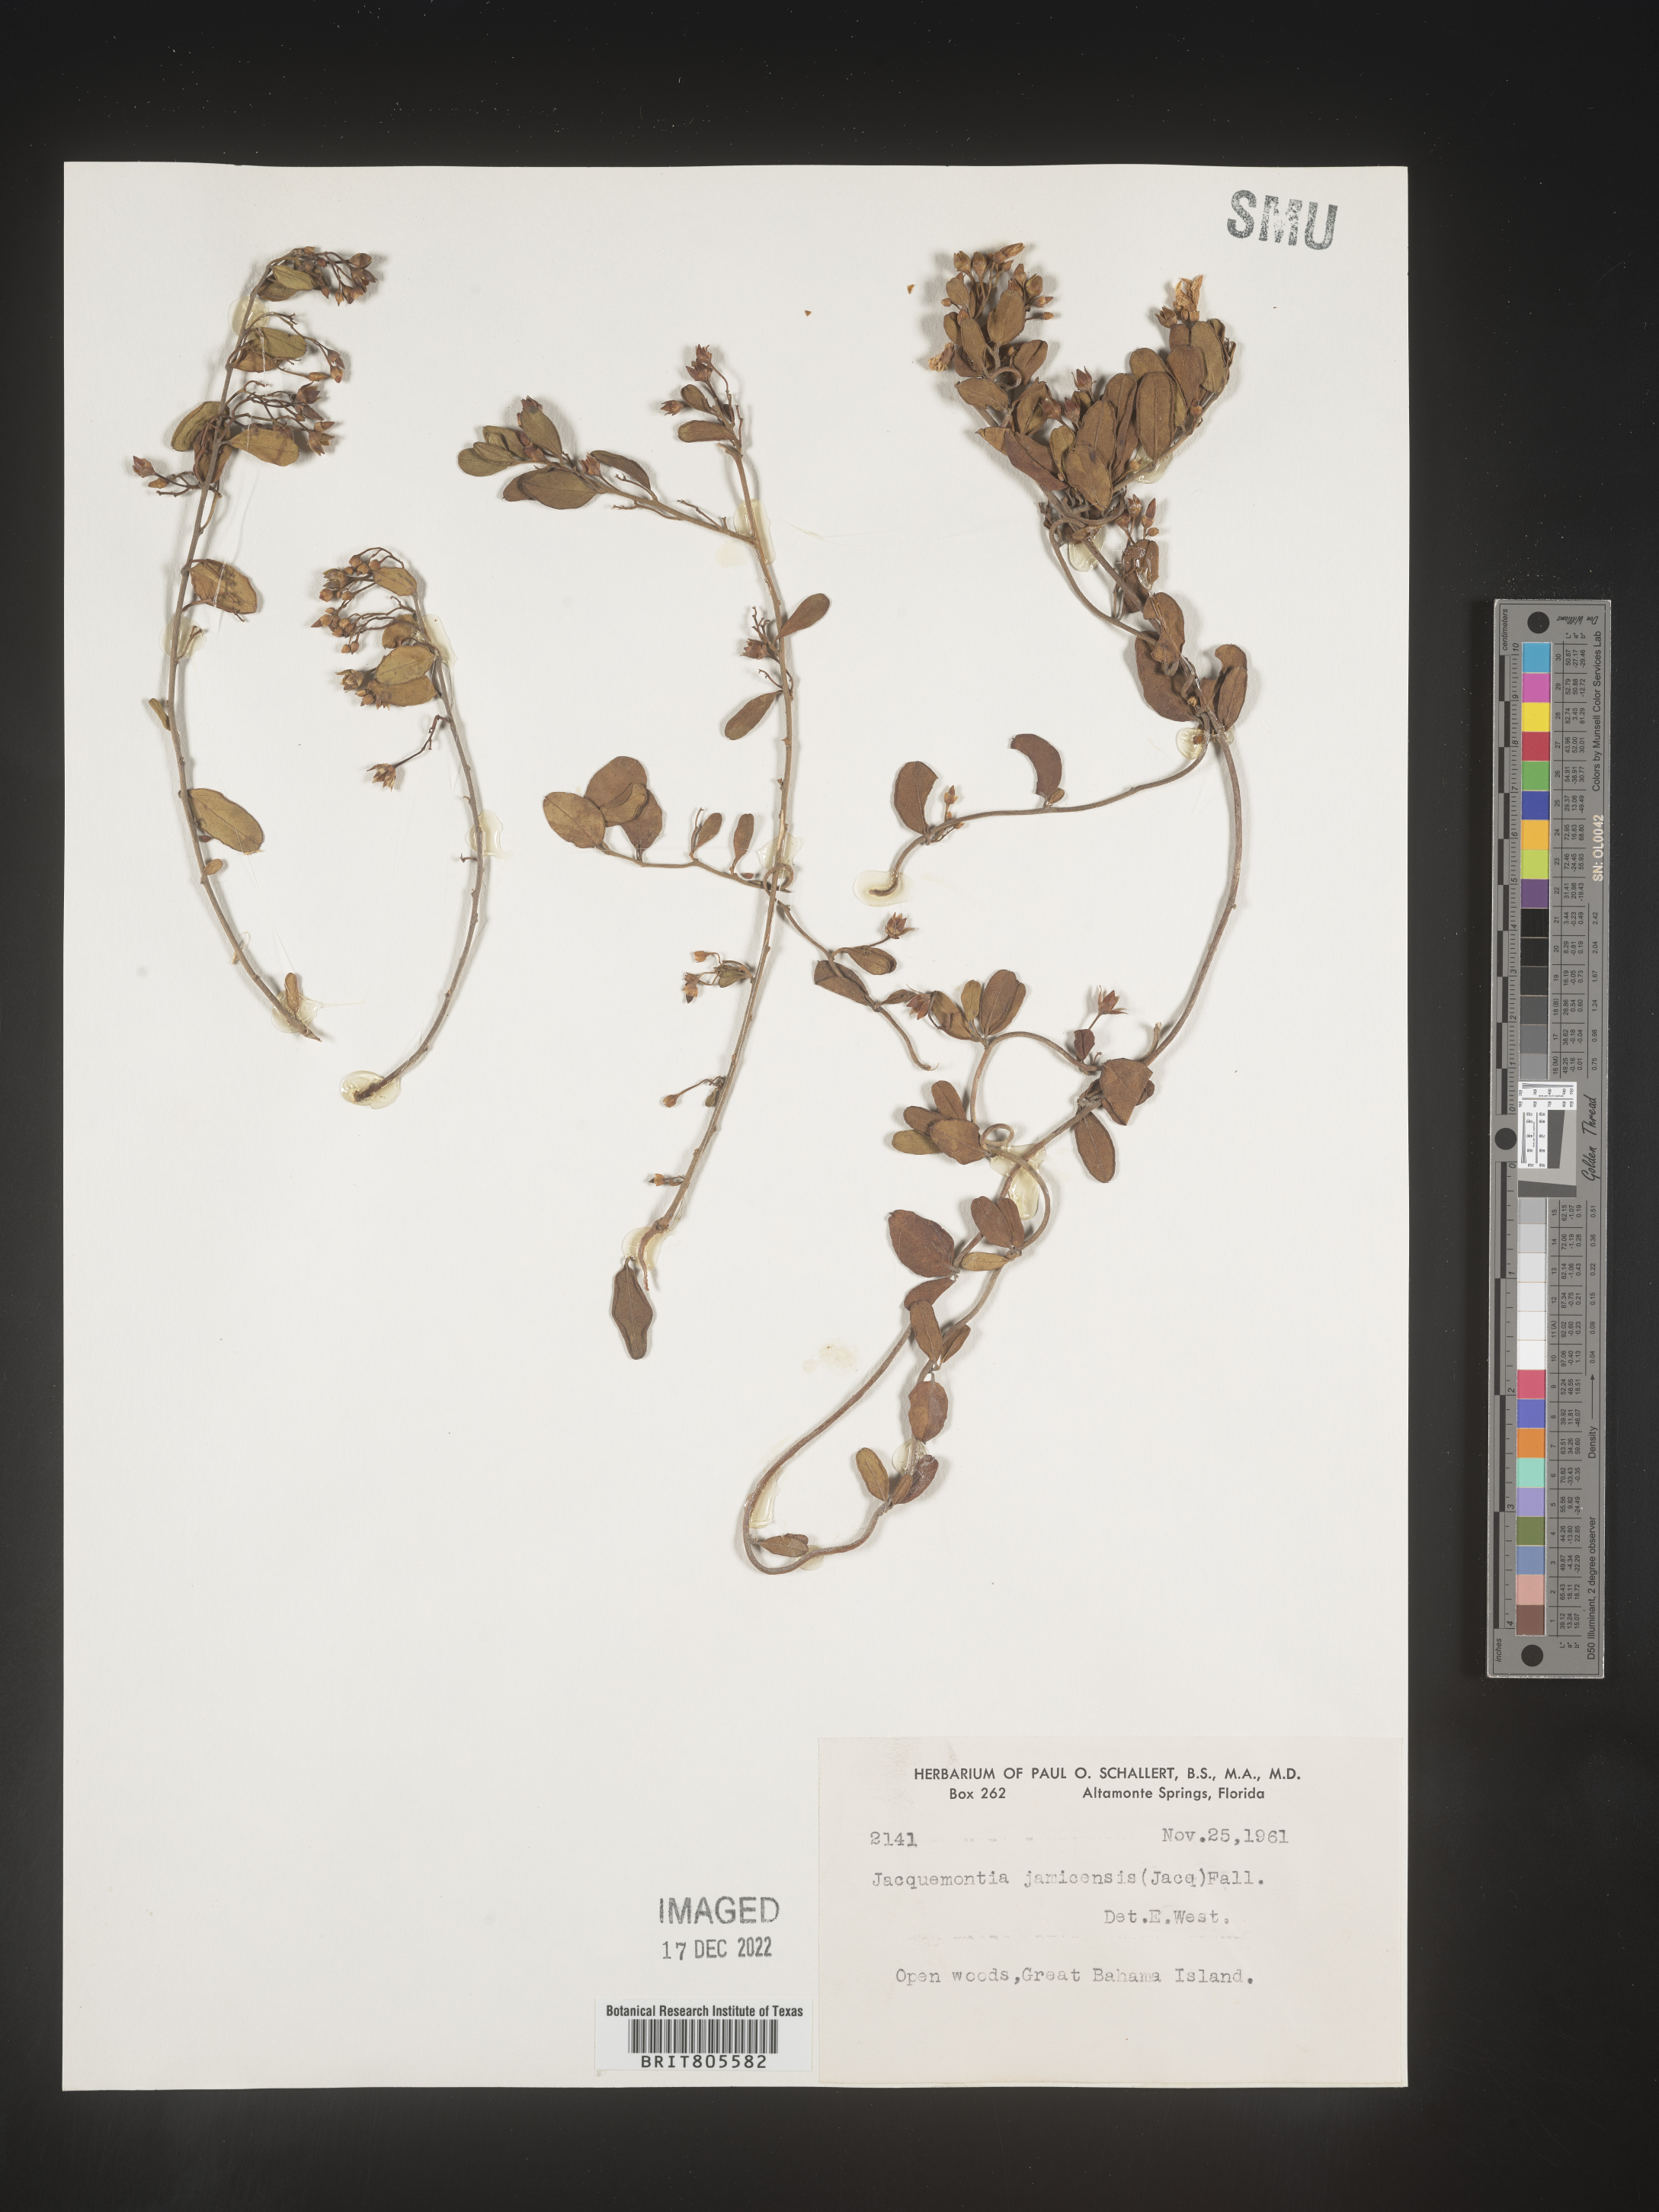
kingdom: Plantae
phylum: Tracheophyta
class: Magnoliopsida
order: Solanales
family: Convolvulaceae
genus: Jacquemontia
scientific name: Jacquemontia
